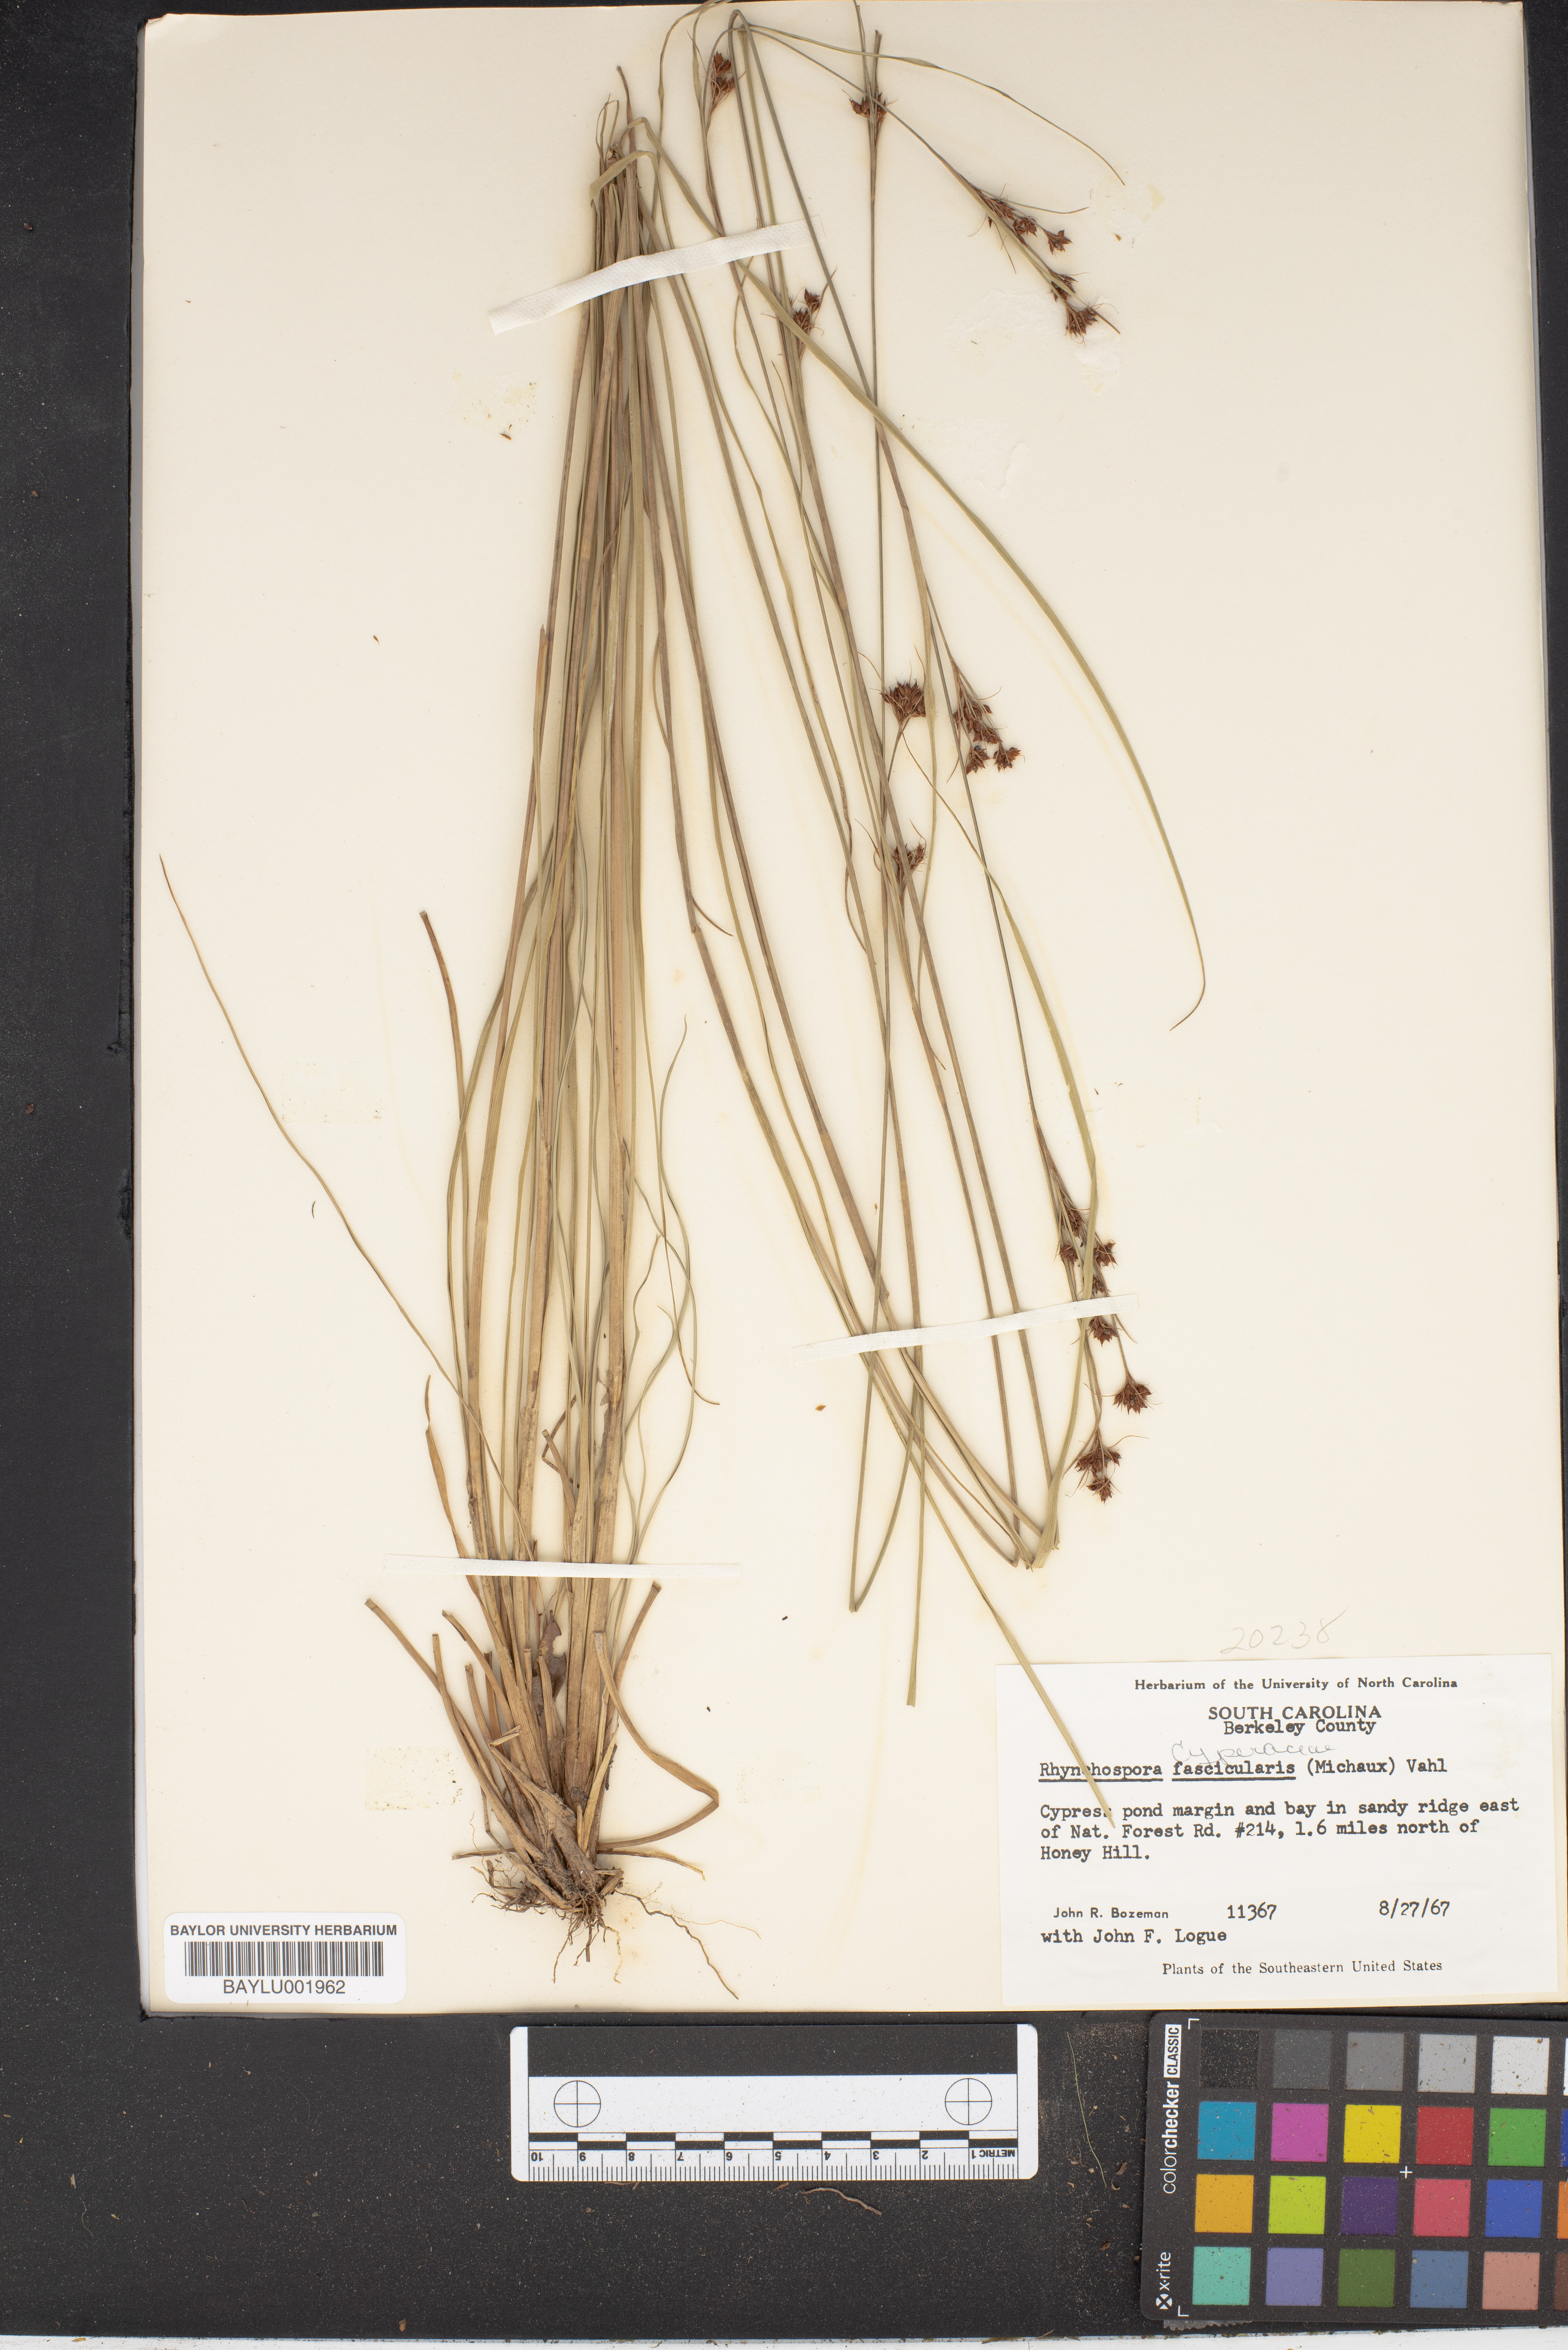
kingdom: Plantae
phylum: Tracheophyta
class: Liliopsida
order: Poales
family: Cyperaceae
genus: Rhynchospora
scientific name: Rhynchospora fascicularis
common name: Fascicled beak sedge
